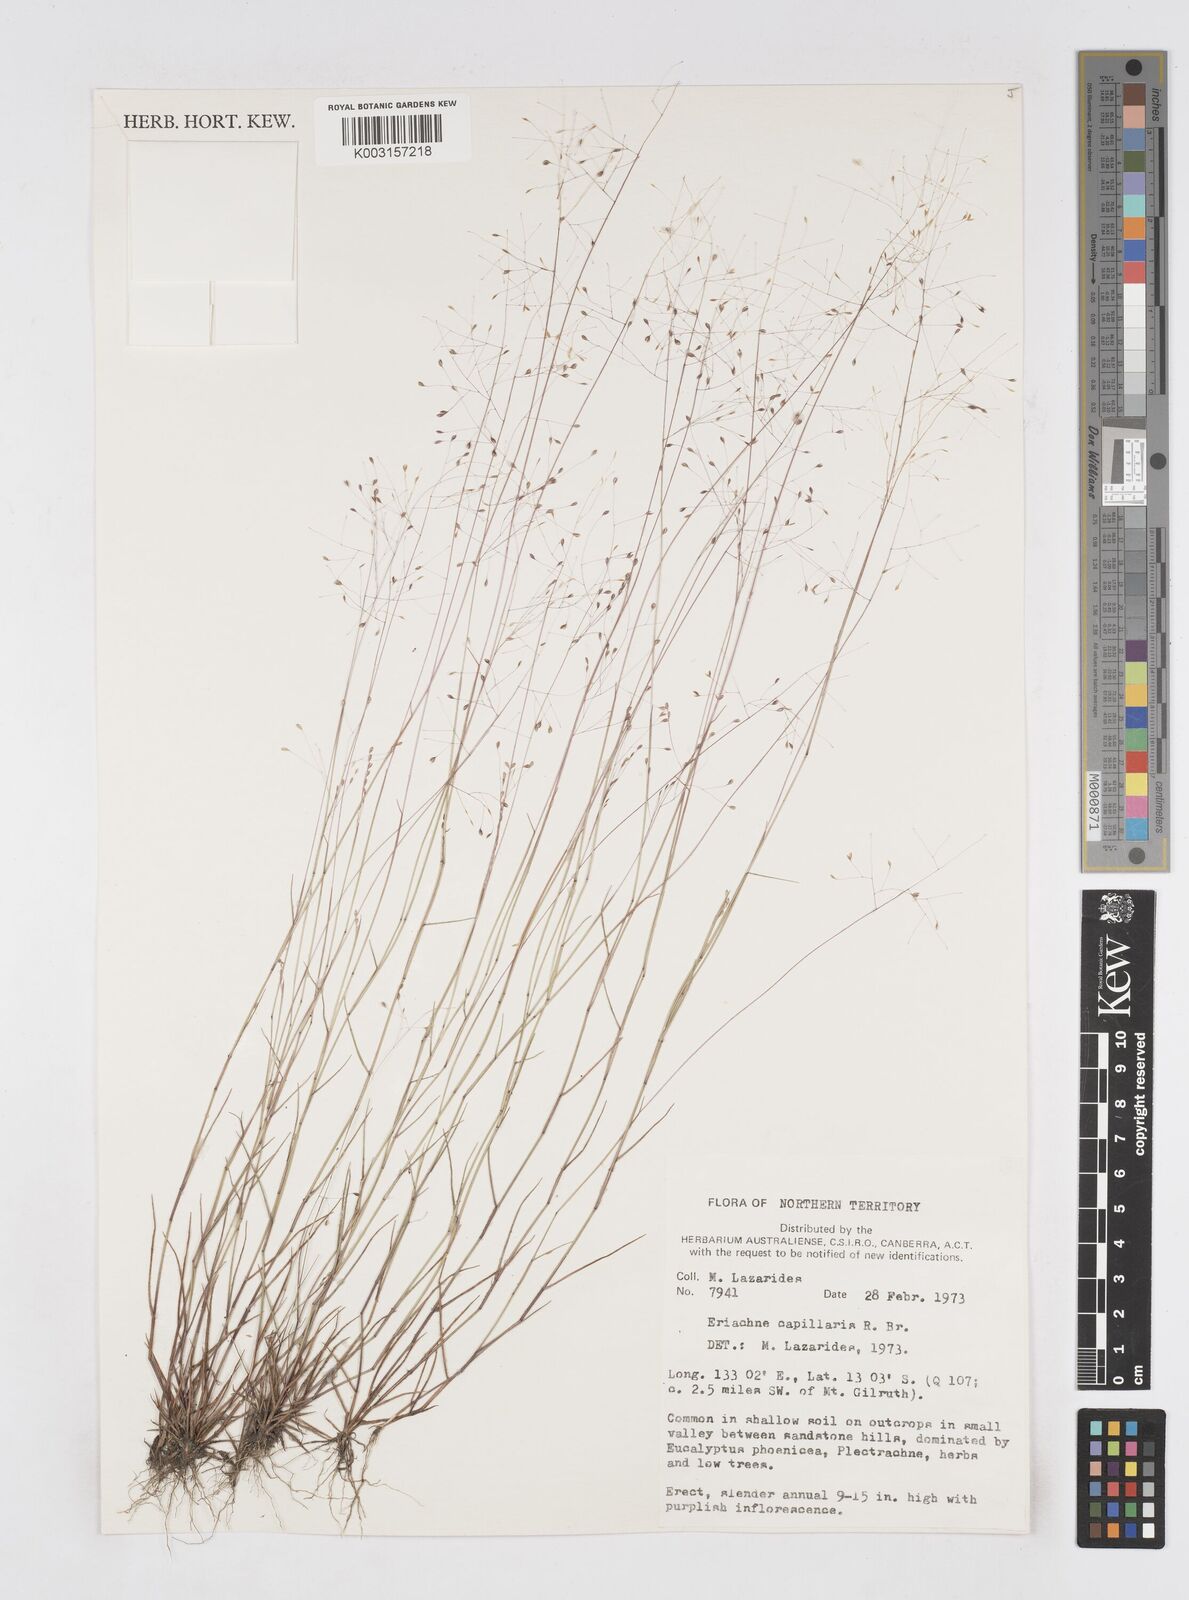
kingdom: Plantae
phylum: Tracheophyta
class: Liliopsida
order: Poales
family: Poaceae
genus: Eriachne
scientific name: Eriachne capillaris
